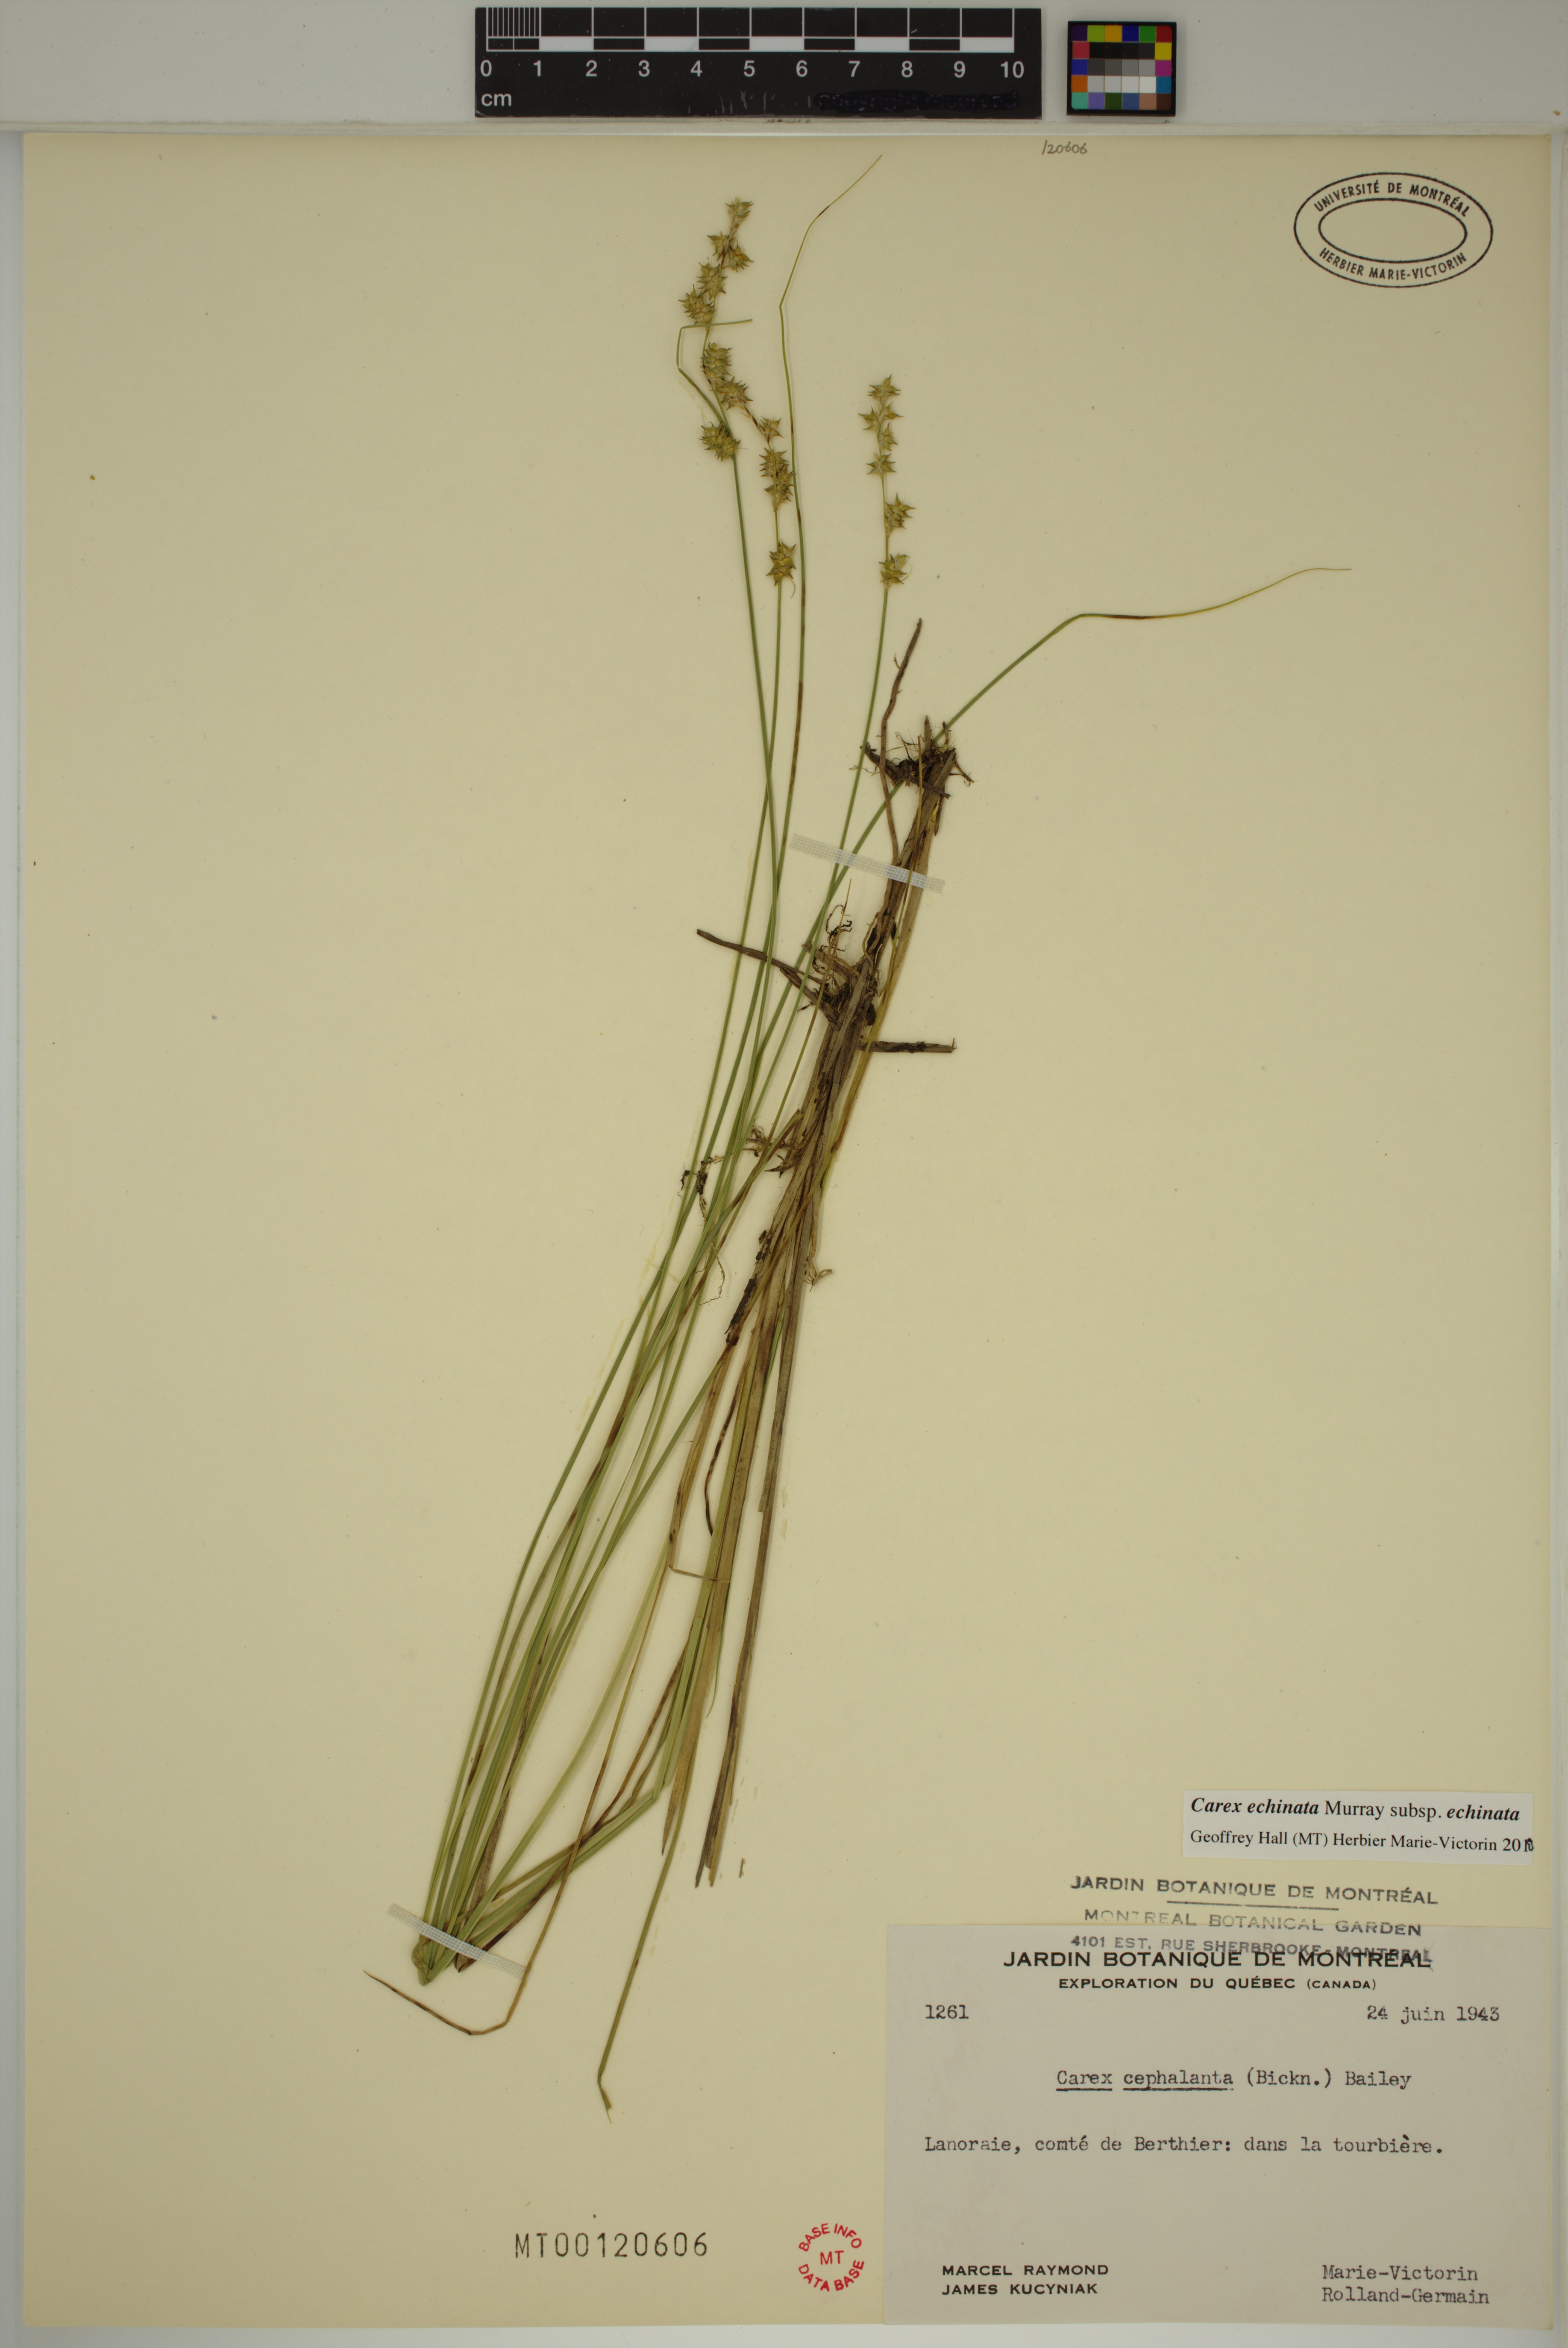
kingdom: Plantae
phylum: Tracheophyta
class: Liliopsida
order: Poales
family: Cyperaceae
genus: Carex
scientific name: Carex echinata
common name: Star sedge
